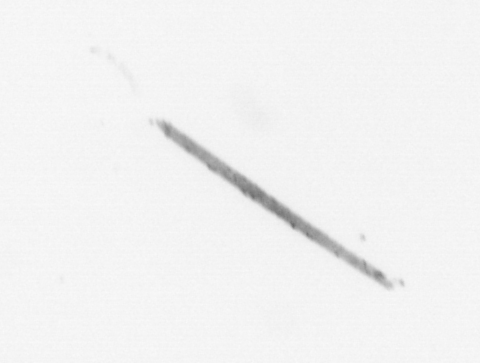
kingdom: Chromista
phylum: Ochrophyta
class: Bacillariophyceae
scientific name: Bacillariophyceae
